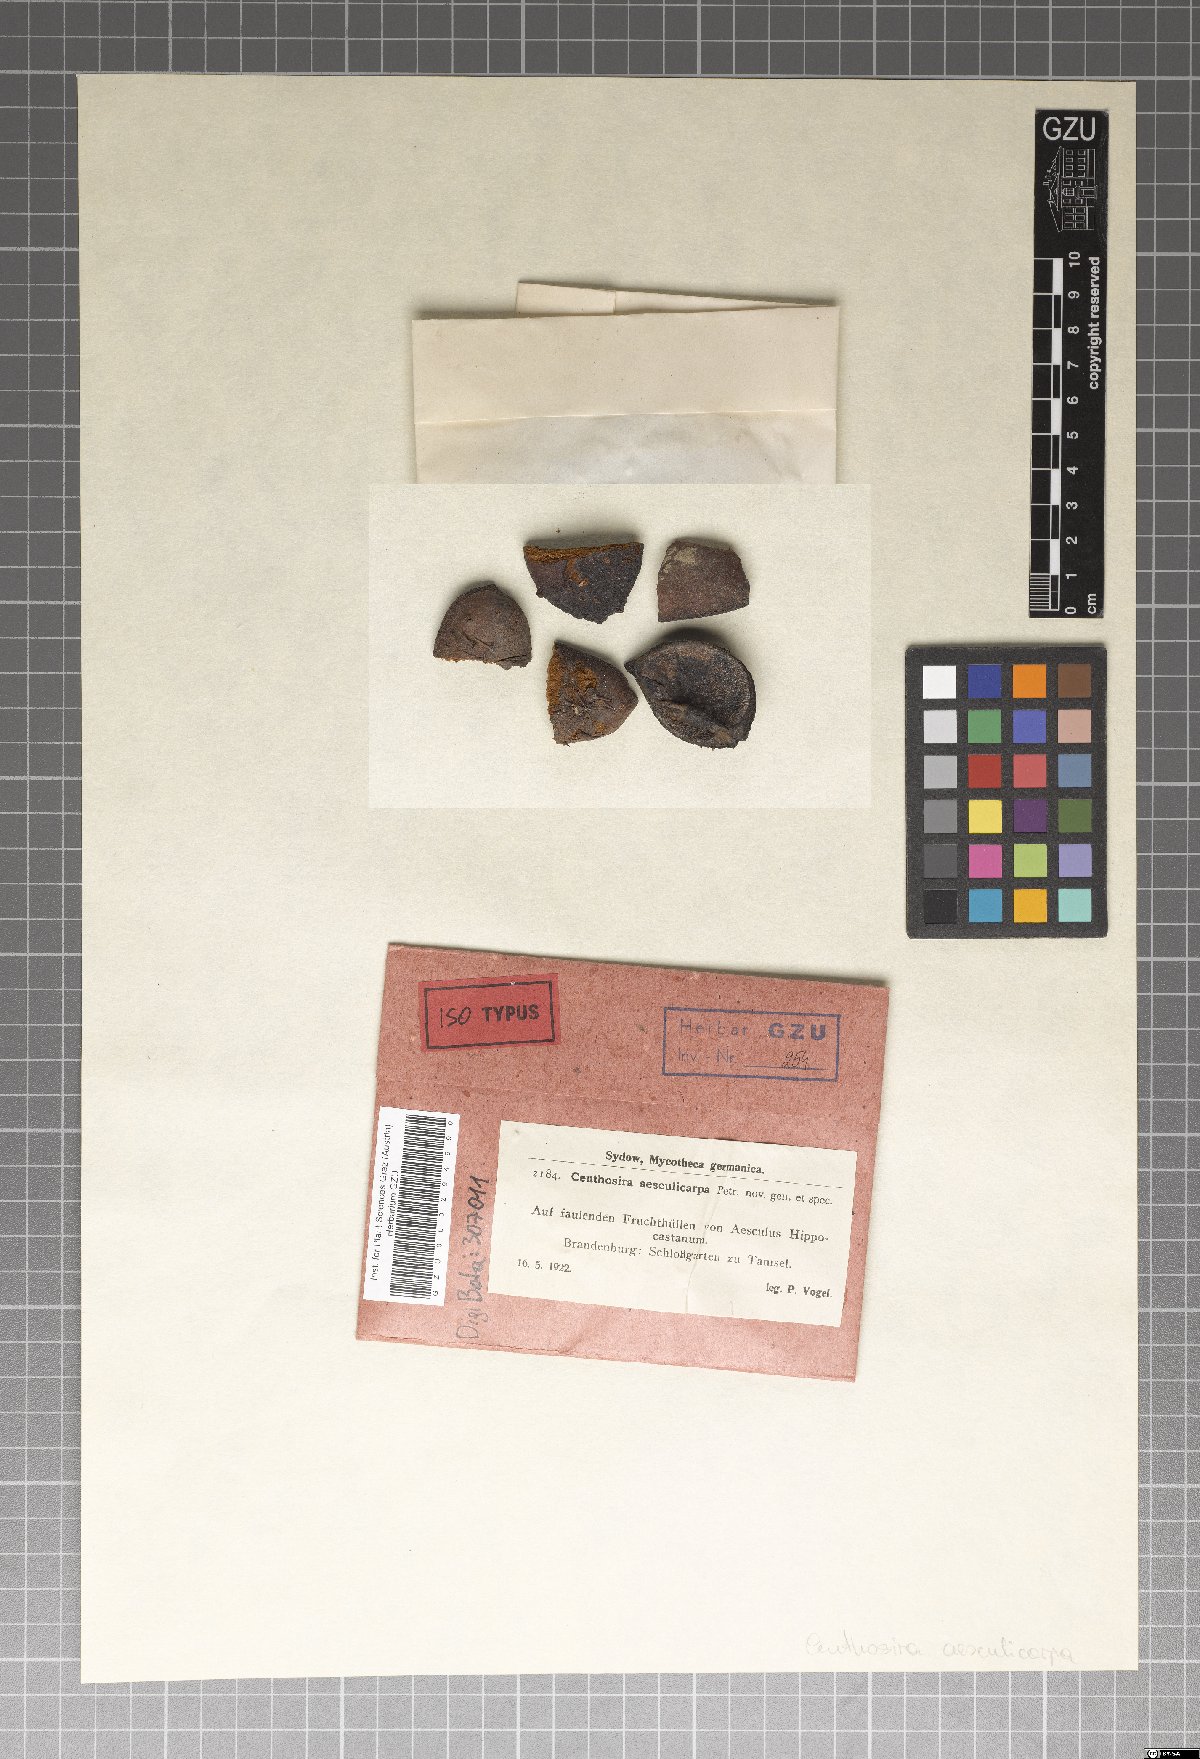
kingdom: Fungi
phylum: Ascomycota
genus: Ceuthosira
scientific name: Ceuthosira aesculicarpa
